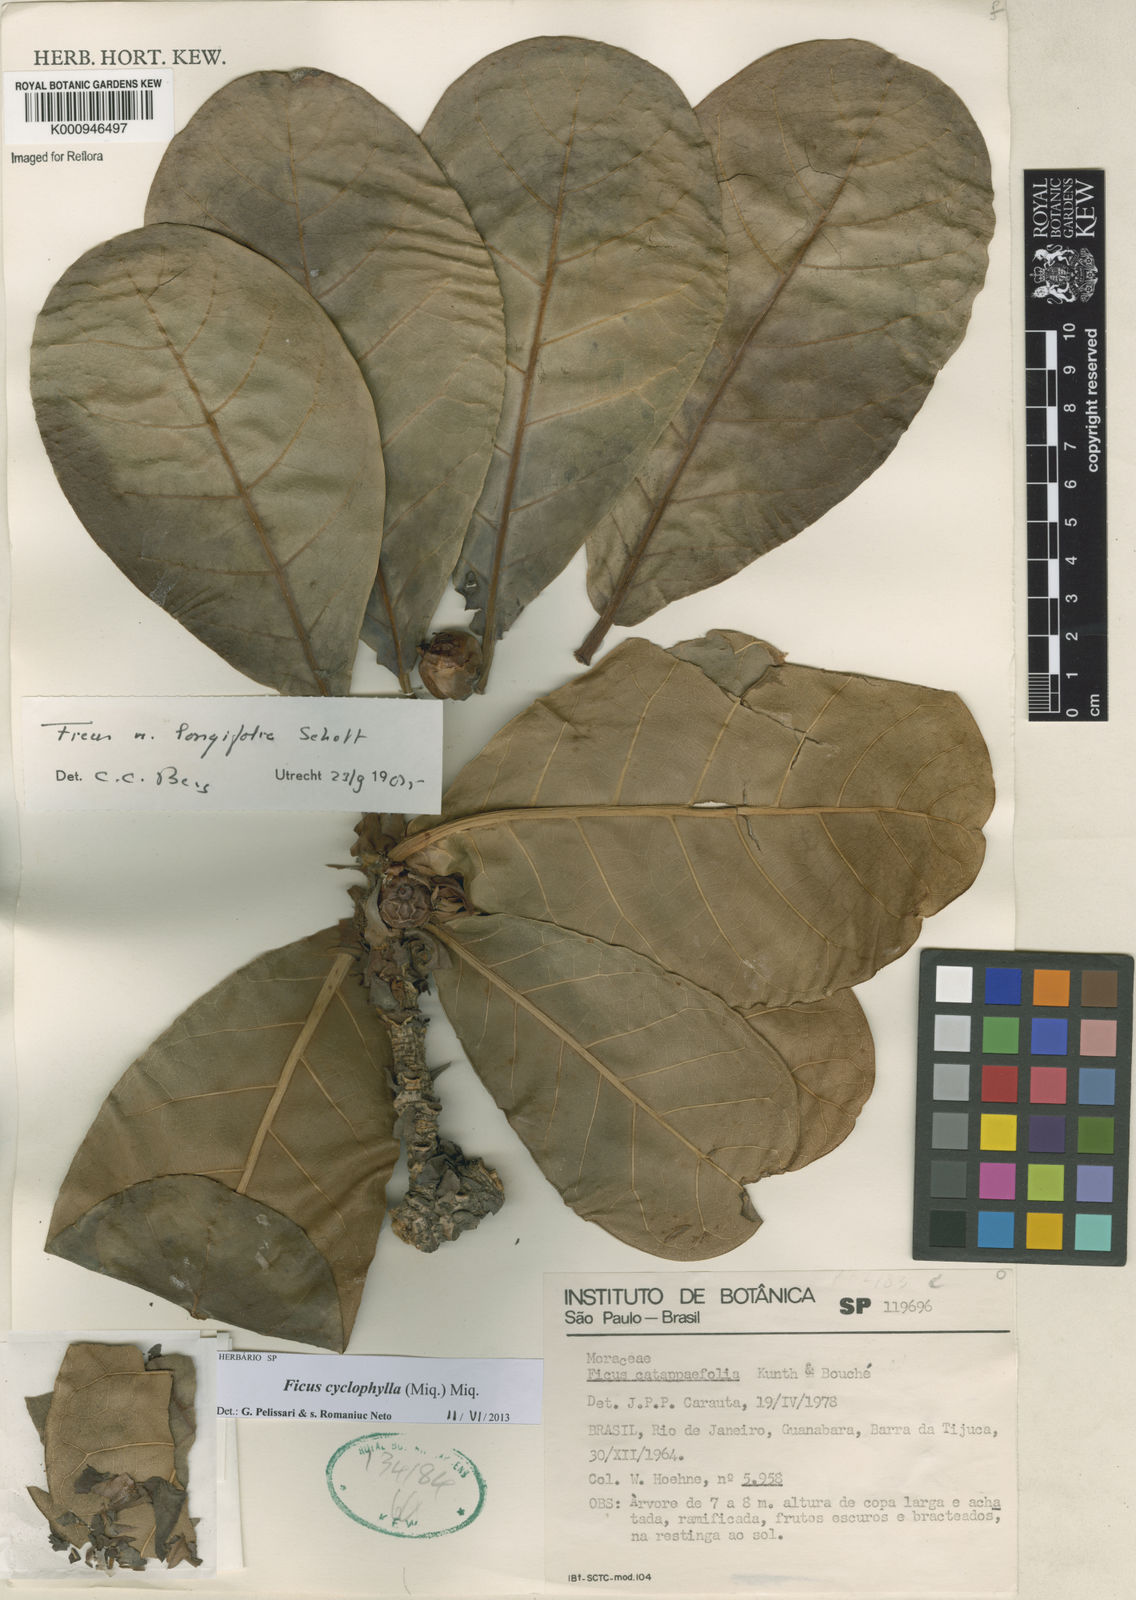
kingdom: Plantae
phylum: Tracheophyta
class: Magnoliopsida
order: Rosales
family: Moraceae
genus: Ficus
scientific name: Ficus cyclophylla
